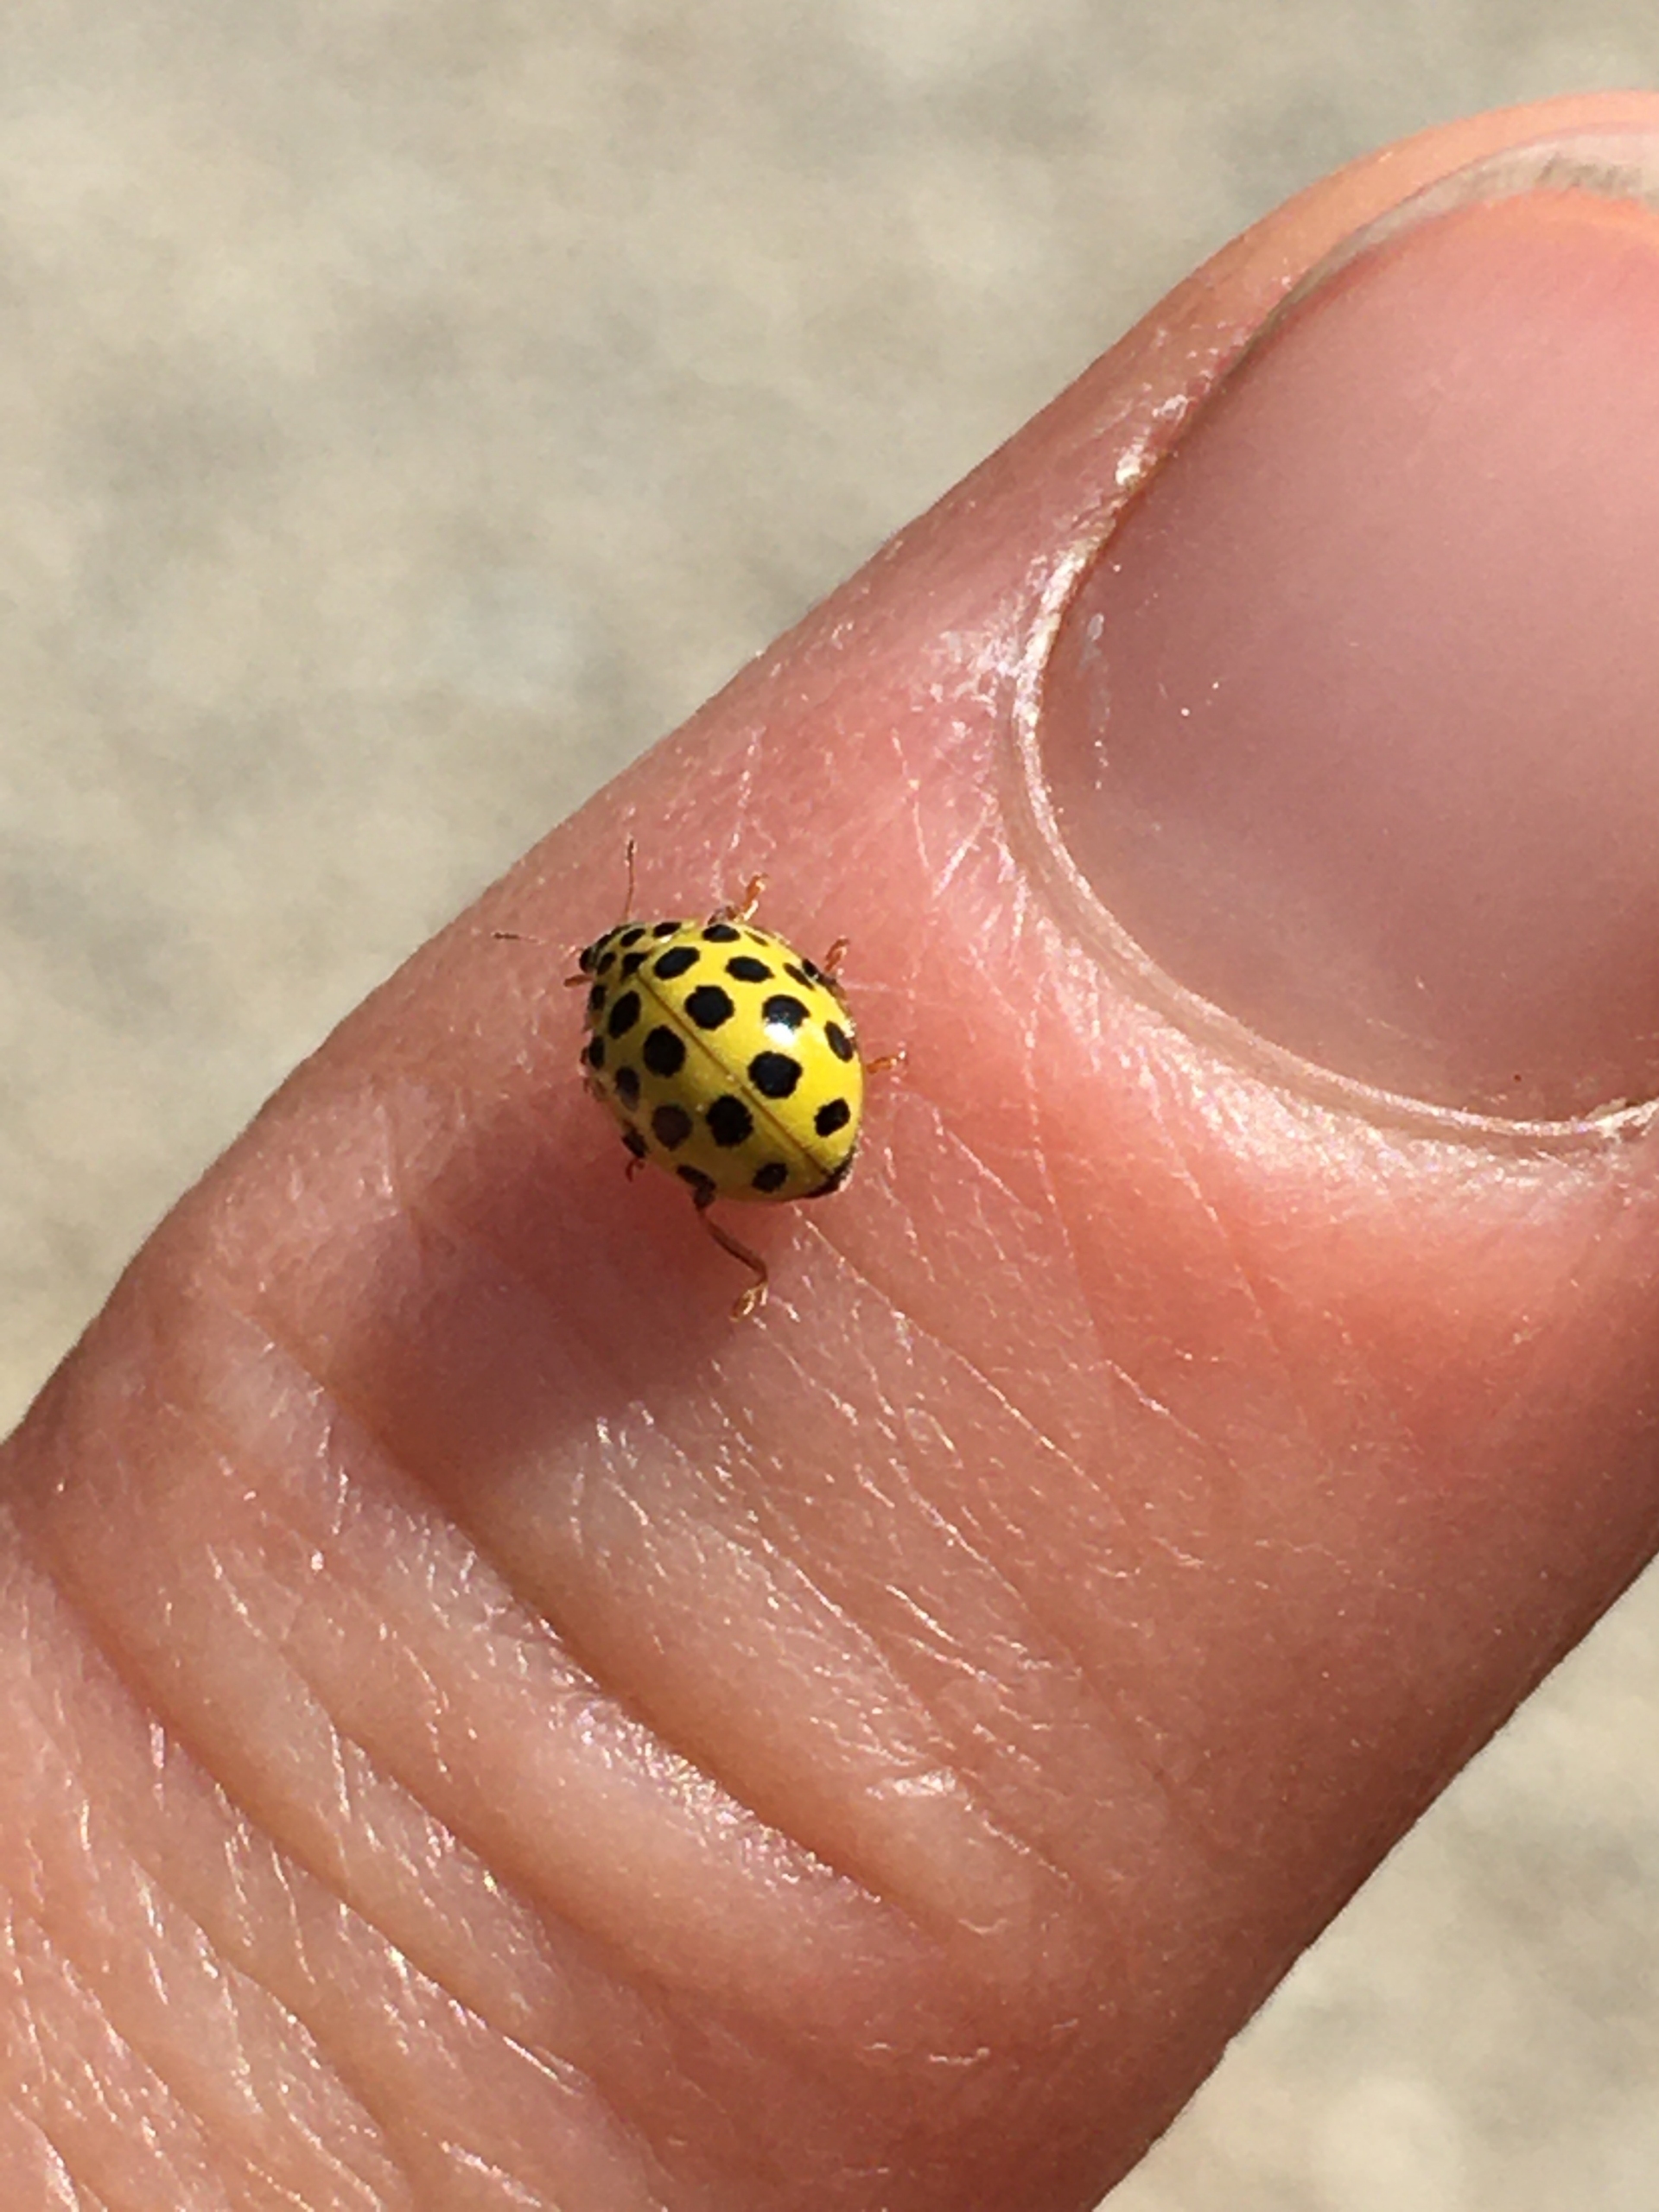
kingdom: Animalia
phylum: Arthropoda
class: Insecta
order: Coleoptera
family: Coccinellidae
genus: Psyllobora
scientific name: Psyllobora vigintiduopunctata
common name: Toogtyveplettet mariehøne
